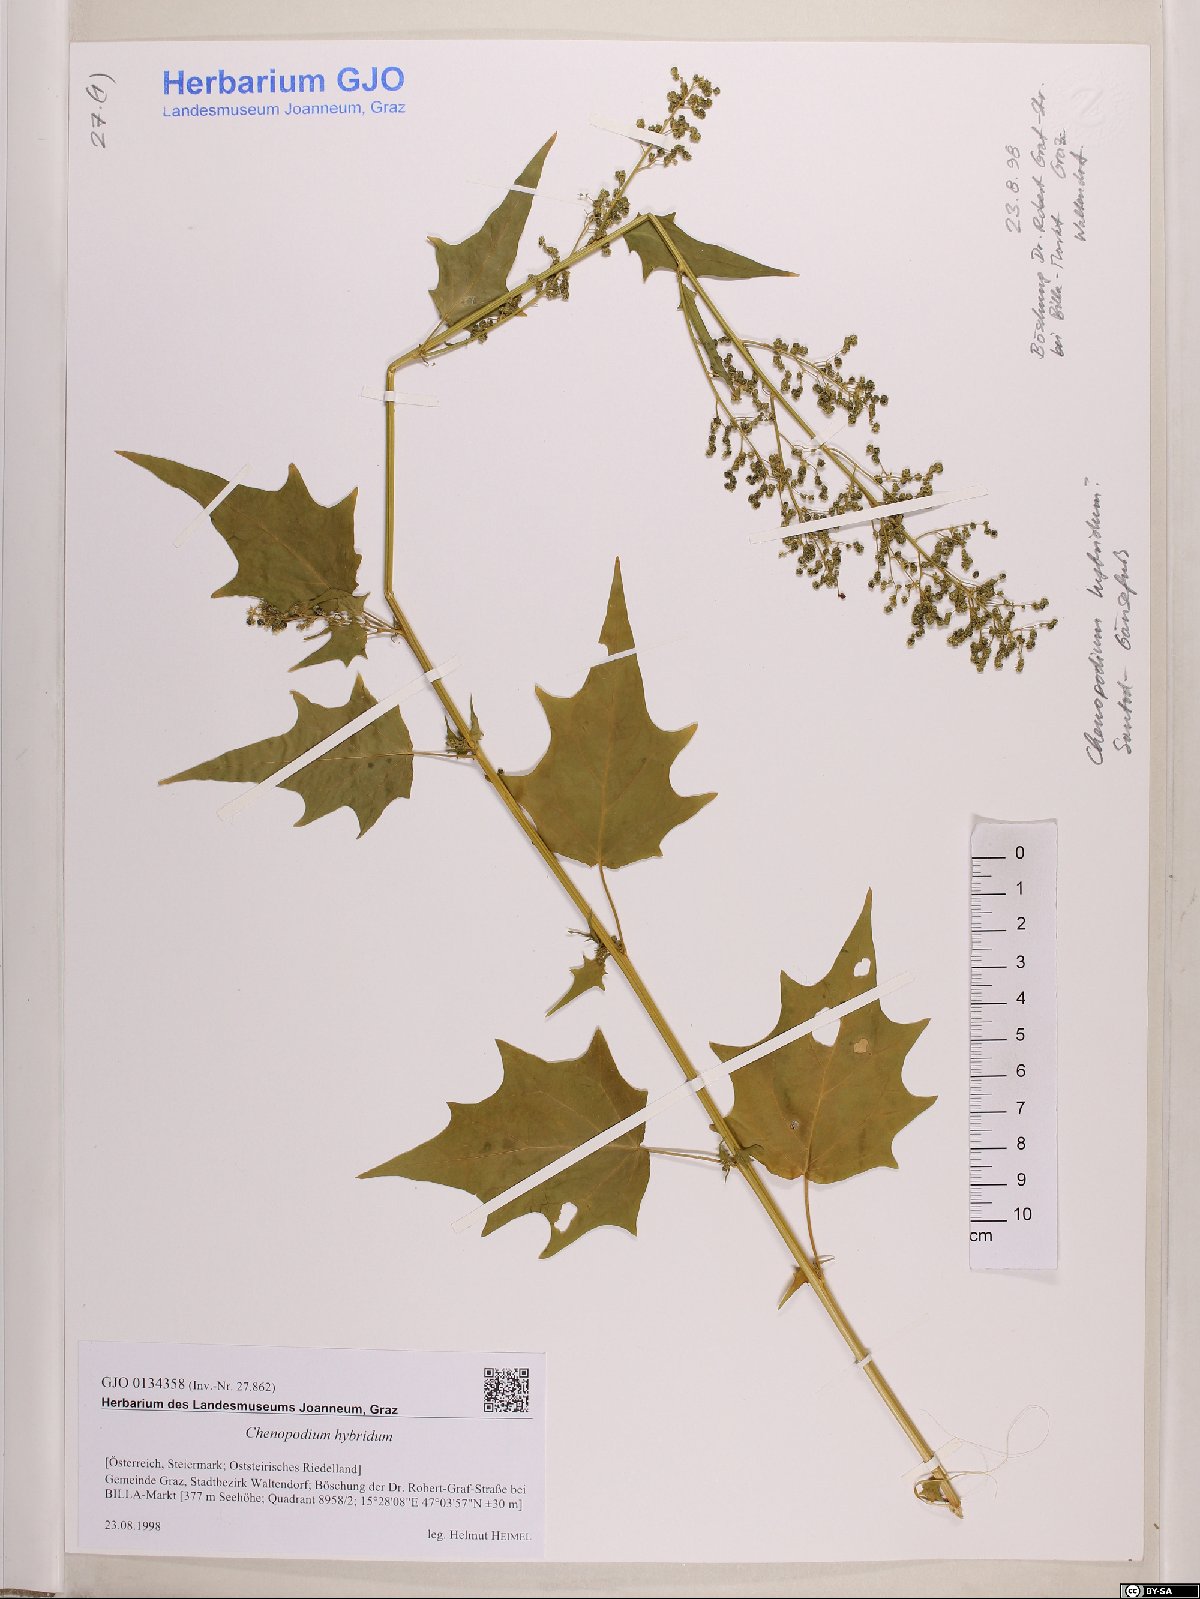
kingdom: Plantae
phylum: Tracheophyta
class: Magnoliopsida
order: Caryophyllales
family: Amaranthaceae
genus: Chenopodiastrum
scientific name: Chenopodiastrum hybridum
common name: Mapleleaf goosefoot
